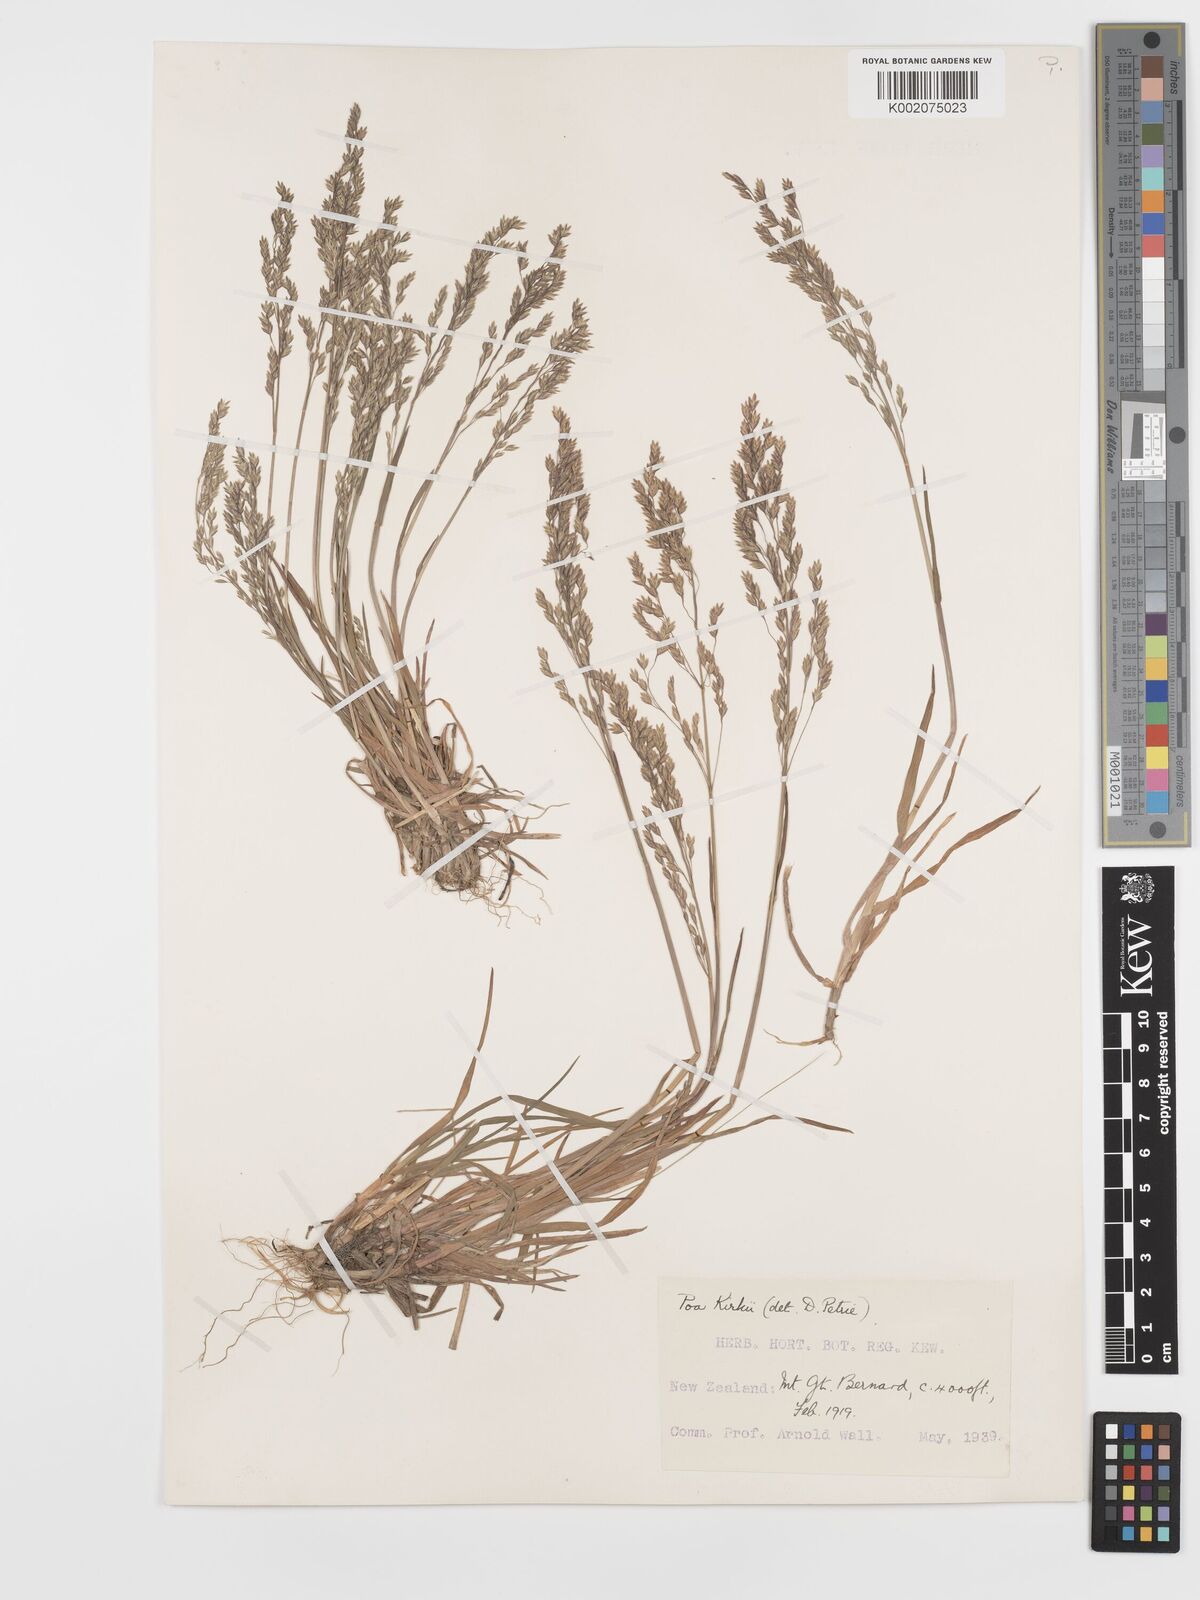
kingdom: Plantae
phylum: Tracheophyta
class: Liliopsida
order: Poales
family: Poaceae
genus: Poa
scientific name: Poa kirkii
